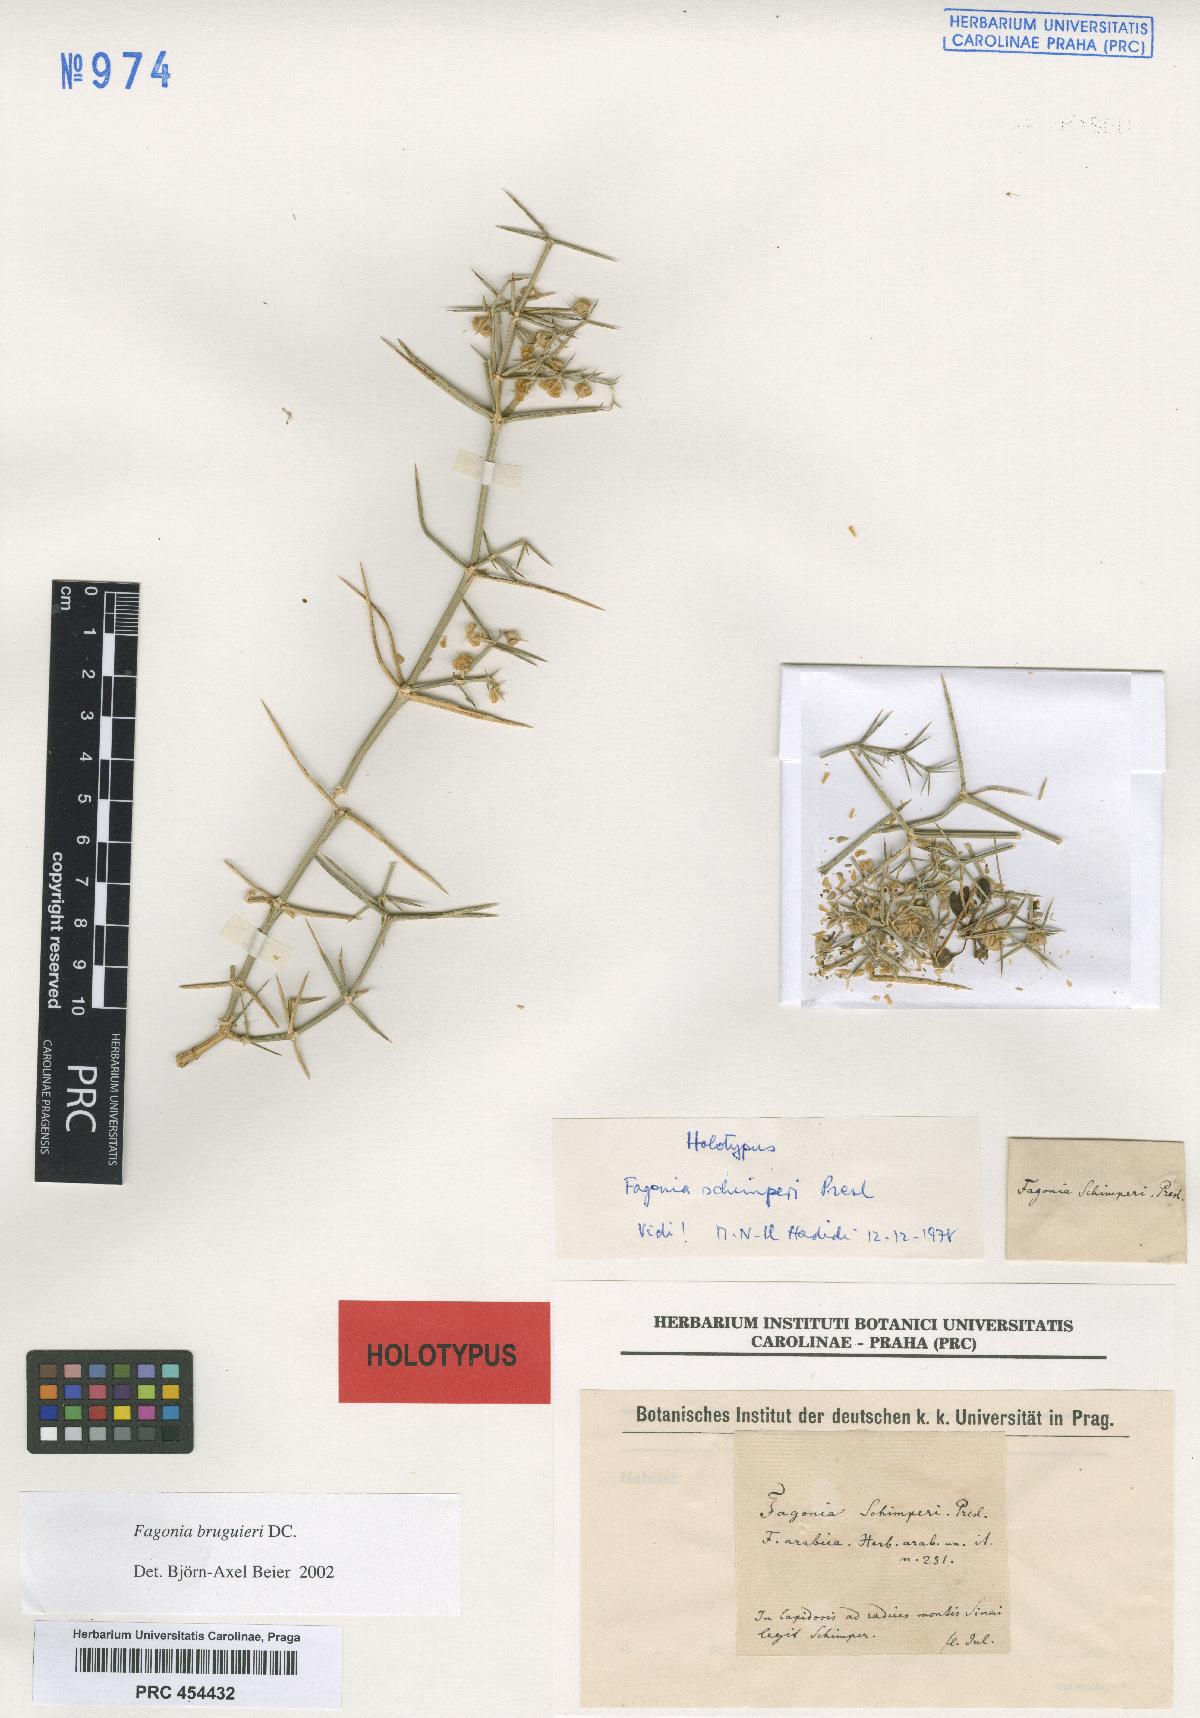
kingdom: Plantae
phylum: Tracheophyta
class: Magnoliopsida
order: Zygophyllales
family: Zygophyllaceae
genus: Fagonia
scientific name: Fagonia bruguieri
